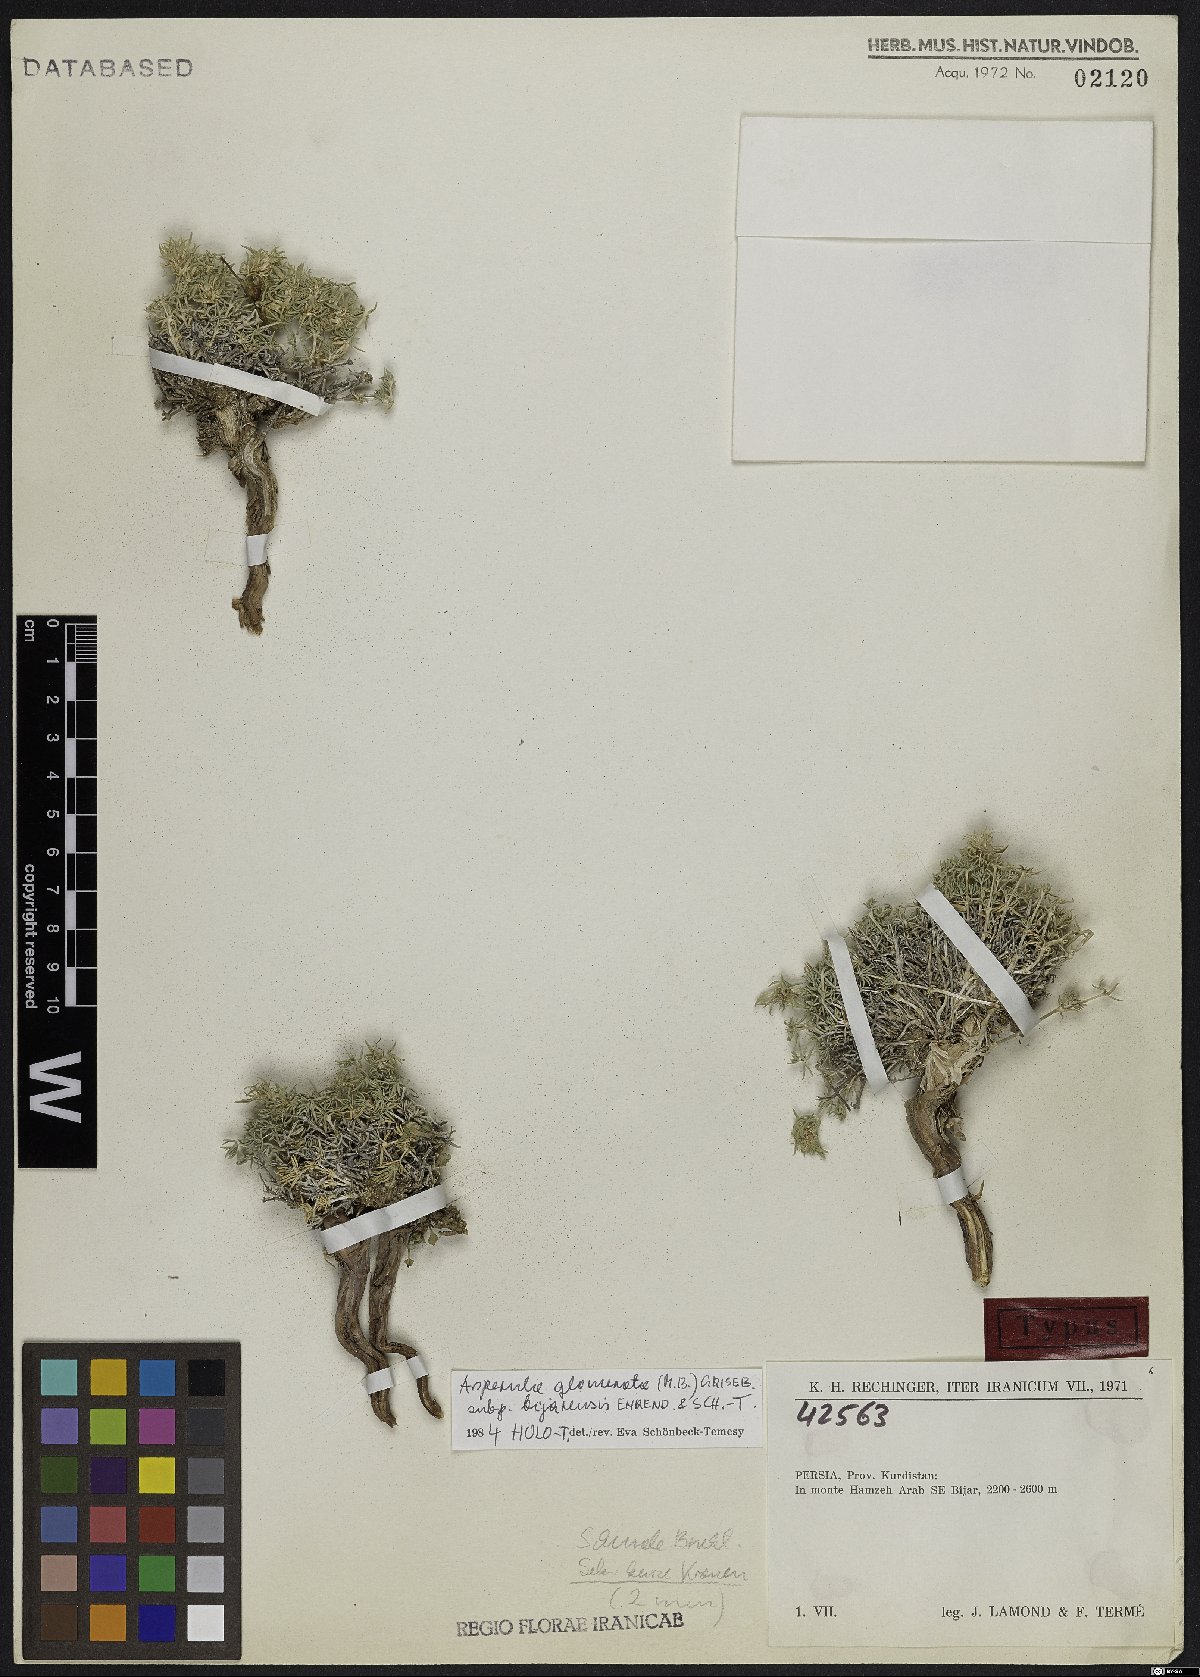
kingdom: Plantae
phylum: Tracheophyta
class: Magnoliopsida
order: Gentianales
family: Rubiaceae
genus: Asperula
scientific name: Asperula glomerata
